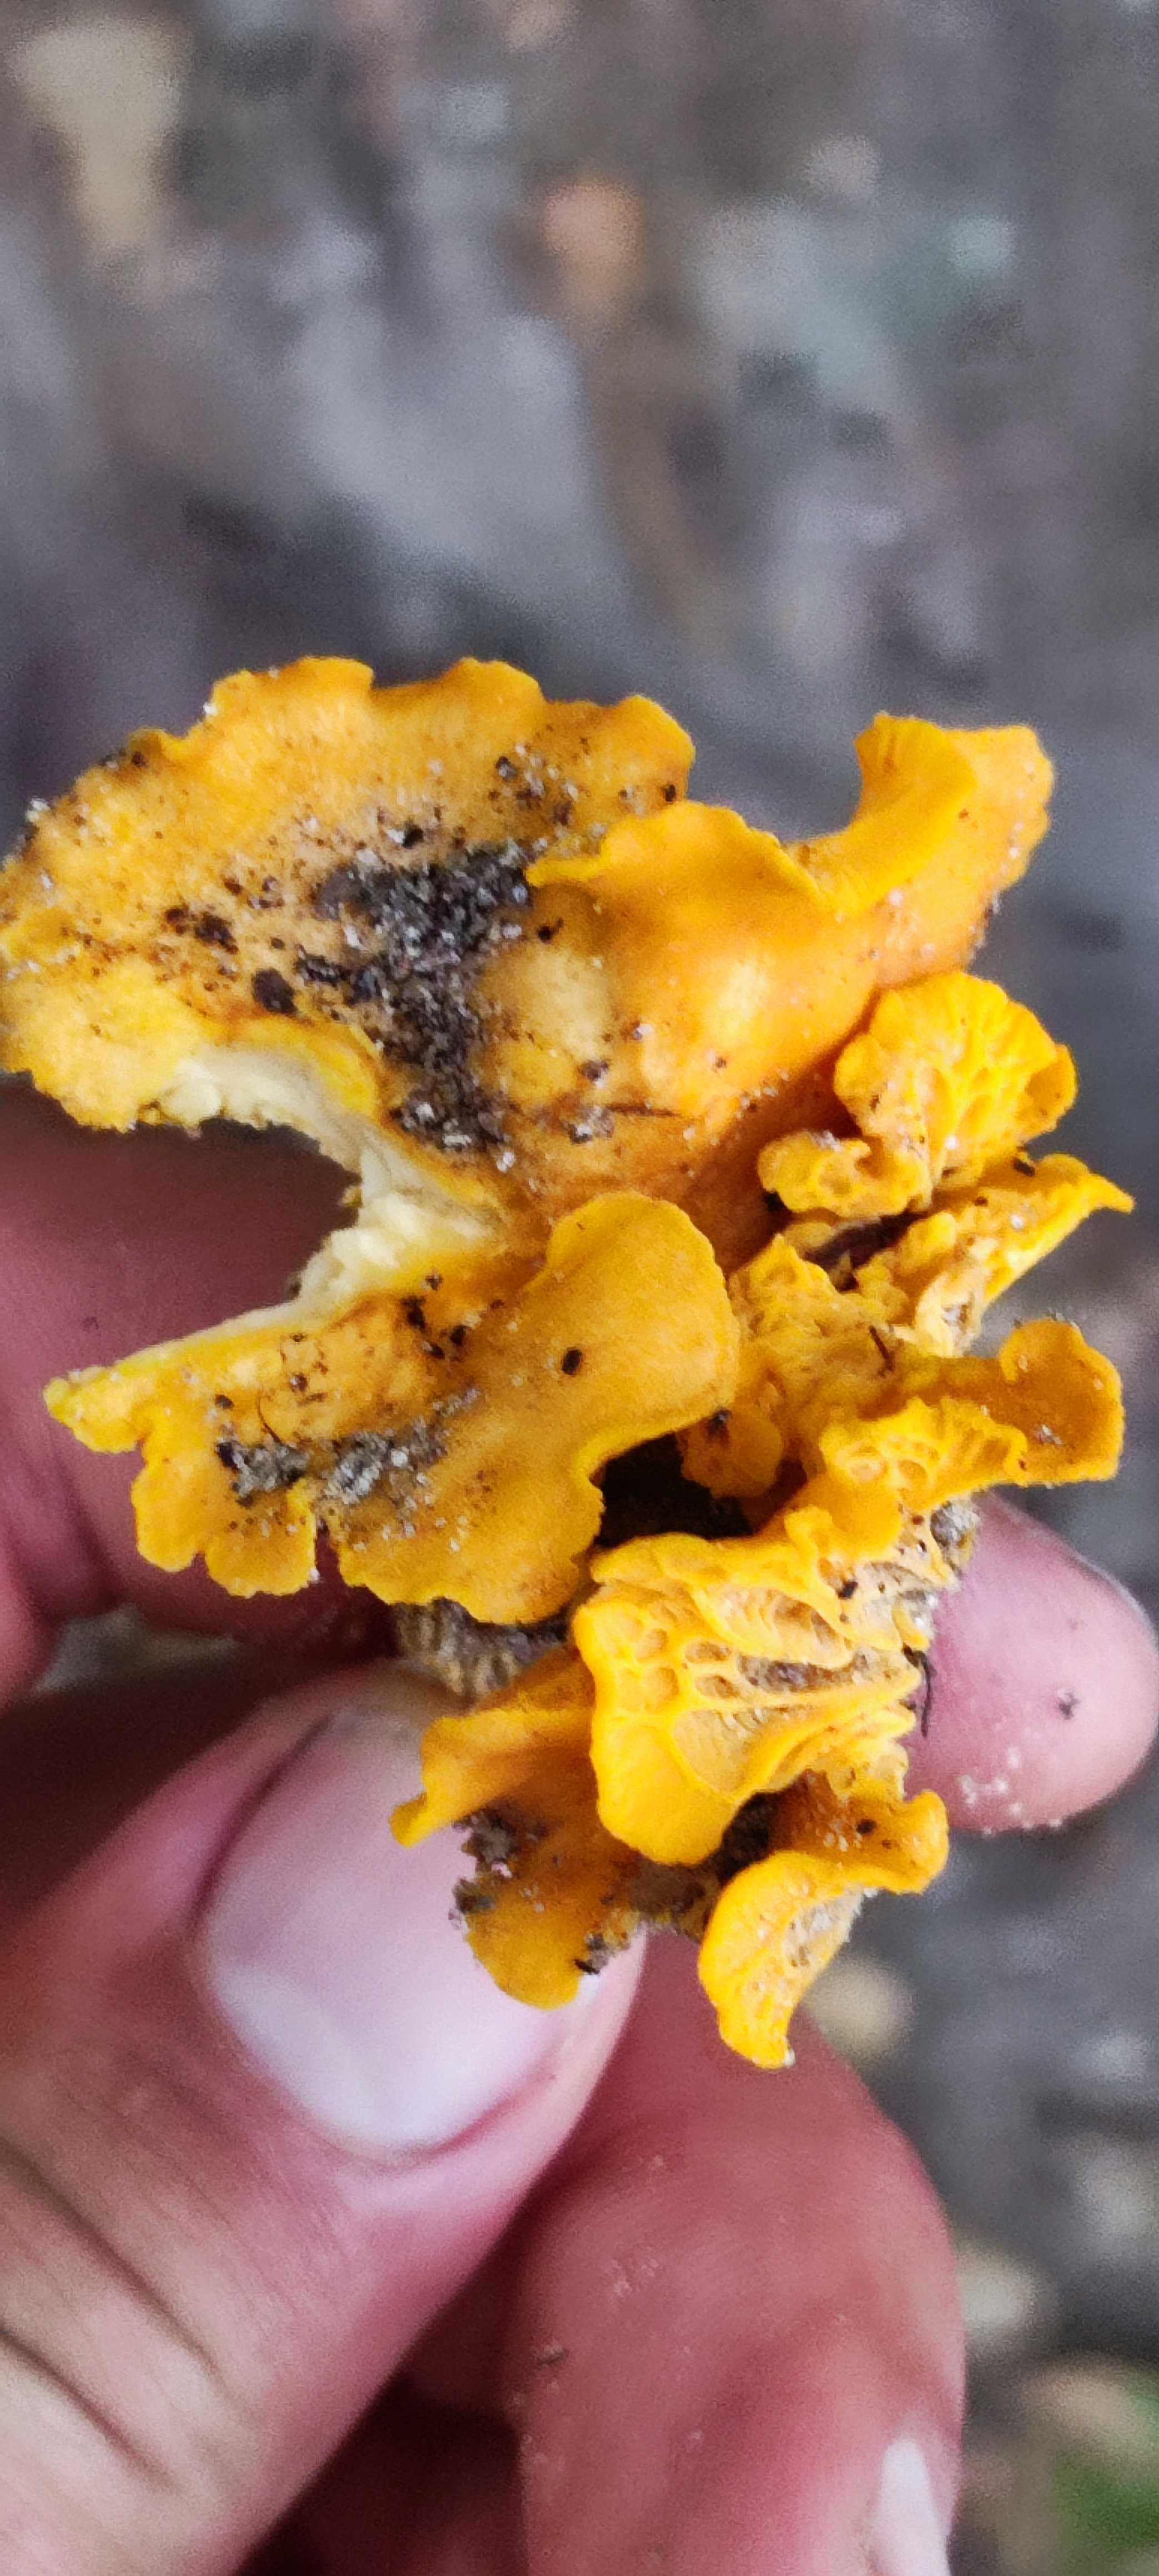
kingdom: Fungi
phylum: Basidiomycota
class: Agaricomycetes
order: Cantharellales
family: Hydnaceae
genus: Cantharellus
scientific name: Cantharellus cibarius
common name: almindelig kantarel
